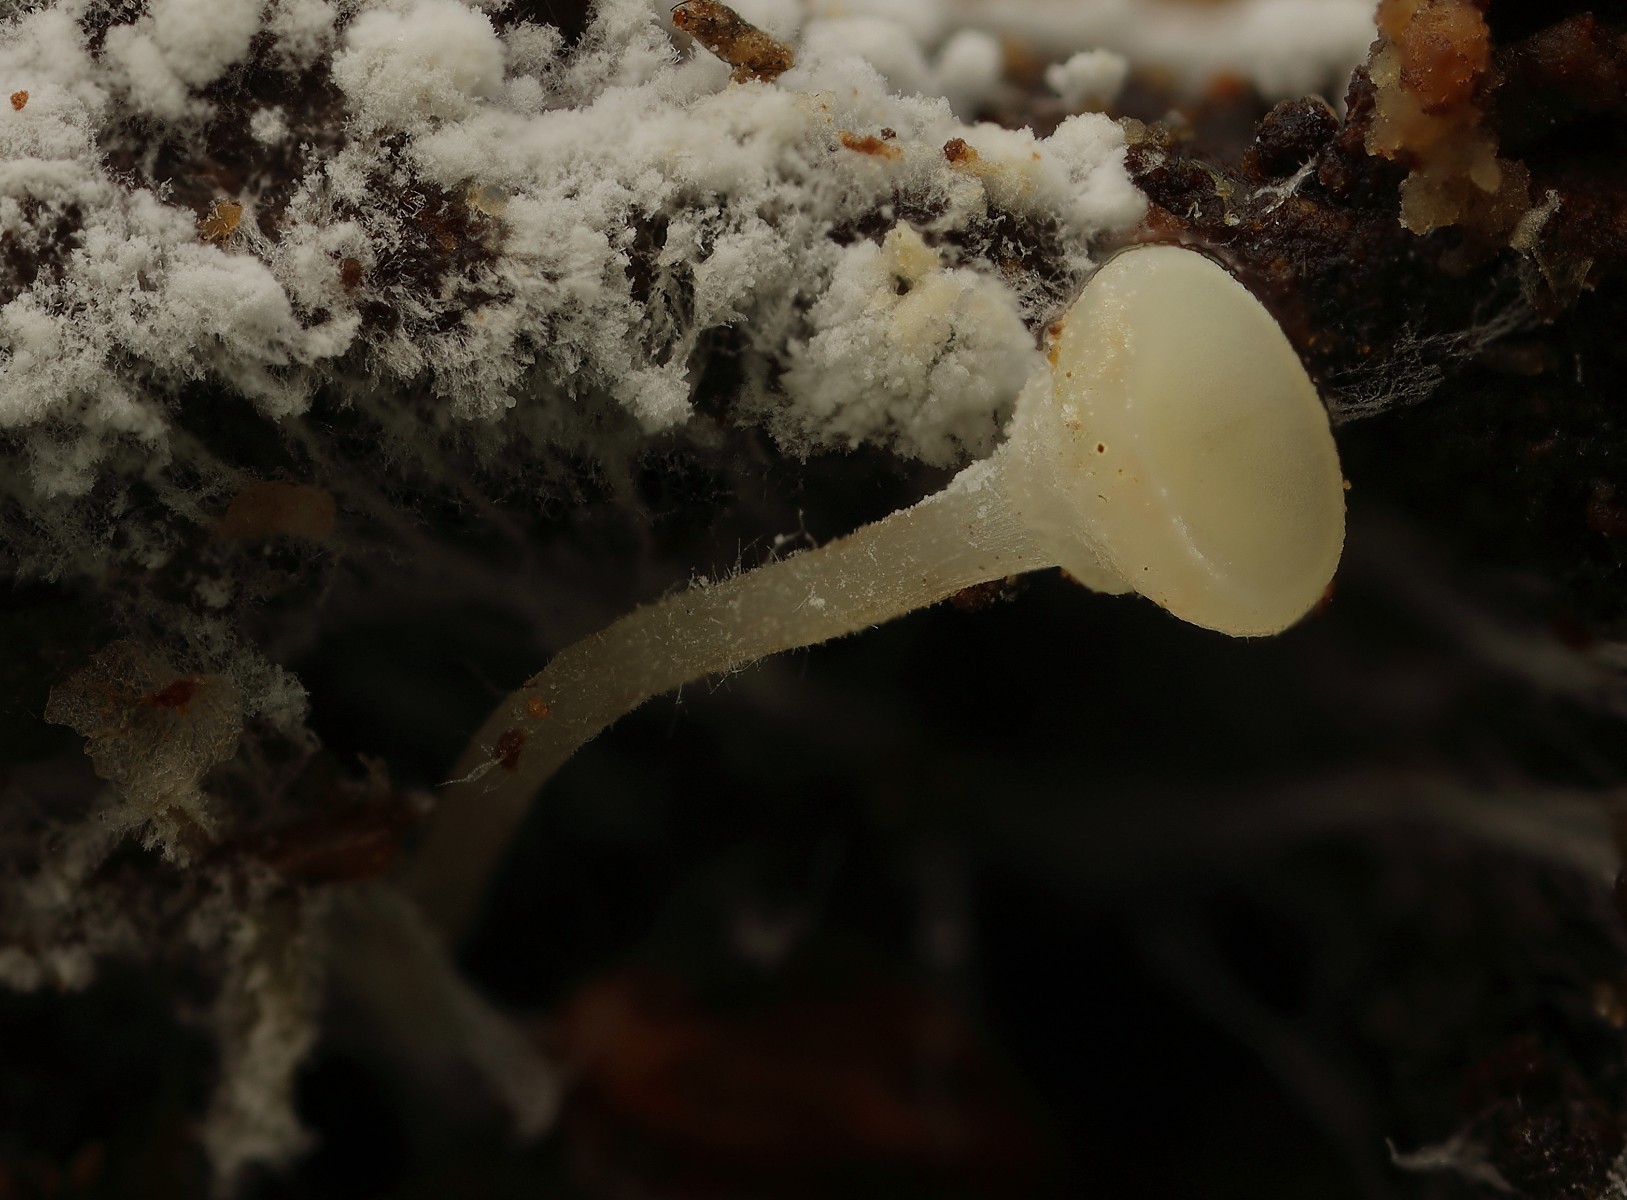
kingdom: Fungi
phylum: Ascomycota
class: Leotiomycetes
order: Helotiales
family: Helotiaceae
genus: Hymenoscyphus
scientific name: Hymenoscyphus seminis-alni
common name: ellefrø-stilkskive
